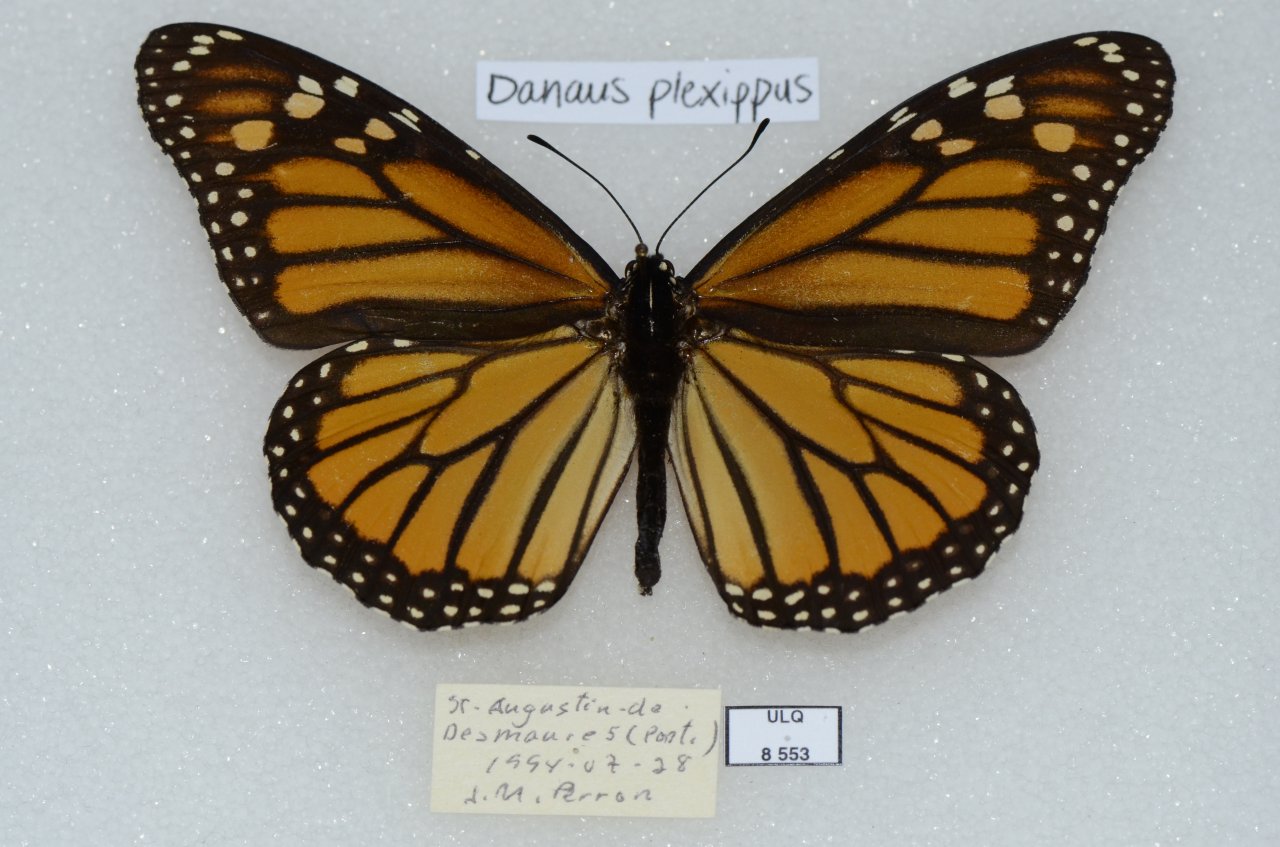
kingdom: Animalia
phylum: Arthropoda
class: Insecta
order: Lepidoptera
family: Nymphalidae
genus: Danaus
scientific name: Danaus plexippus
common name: Monarch
